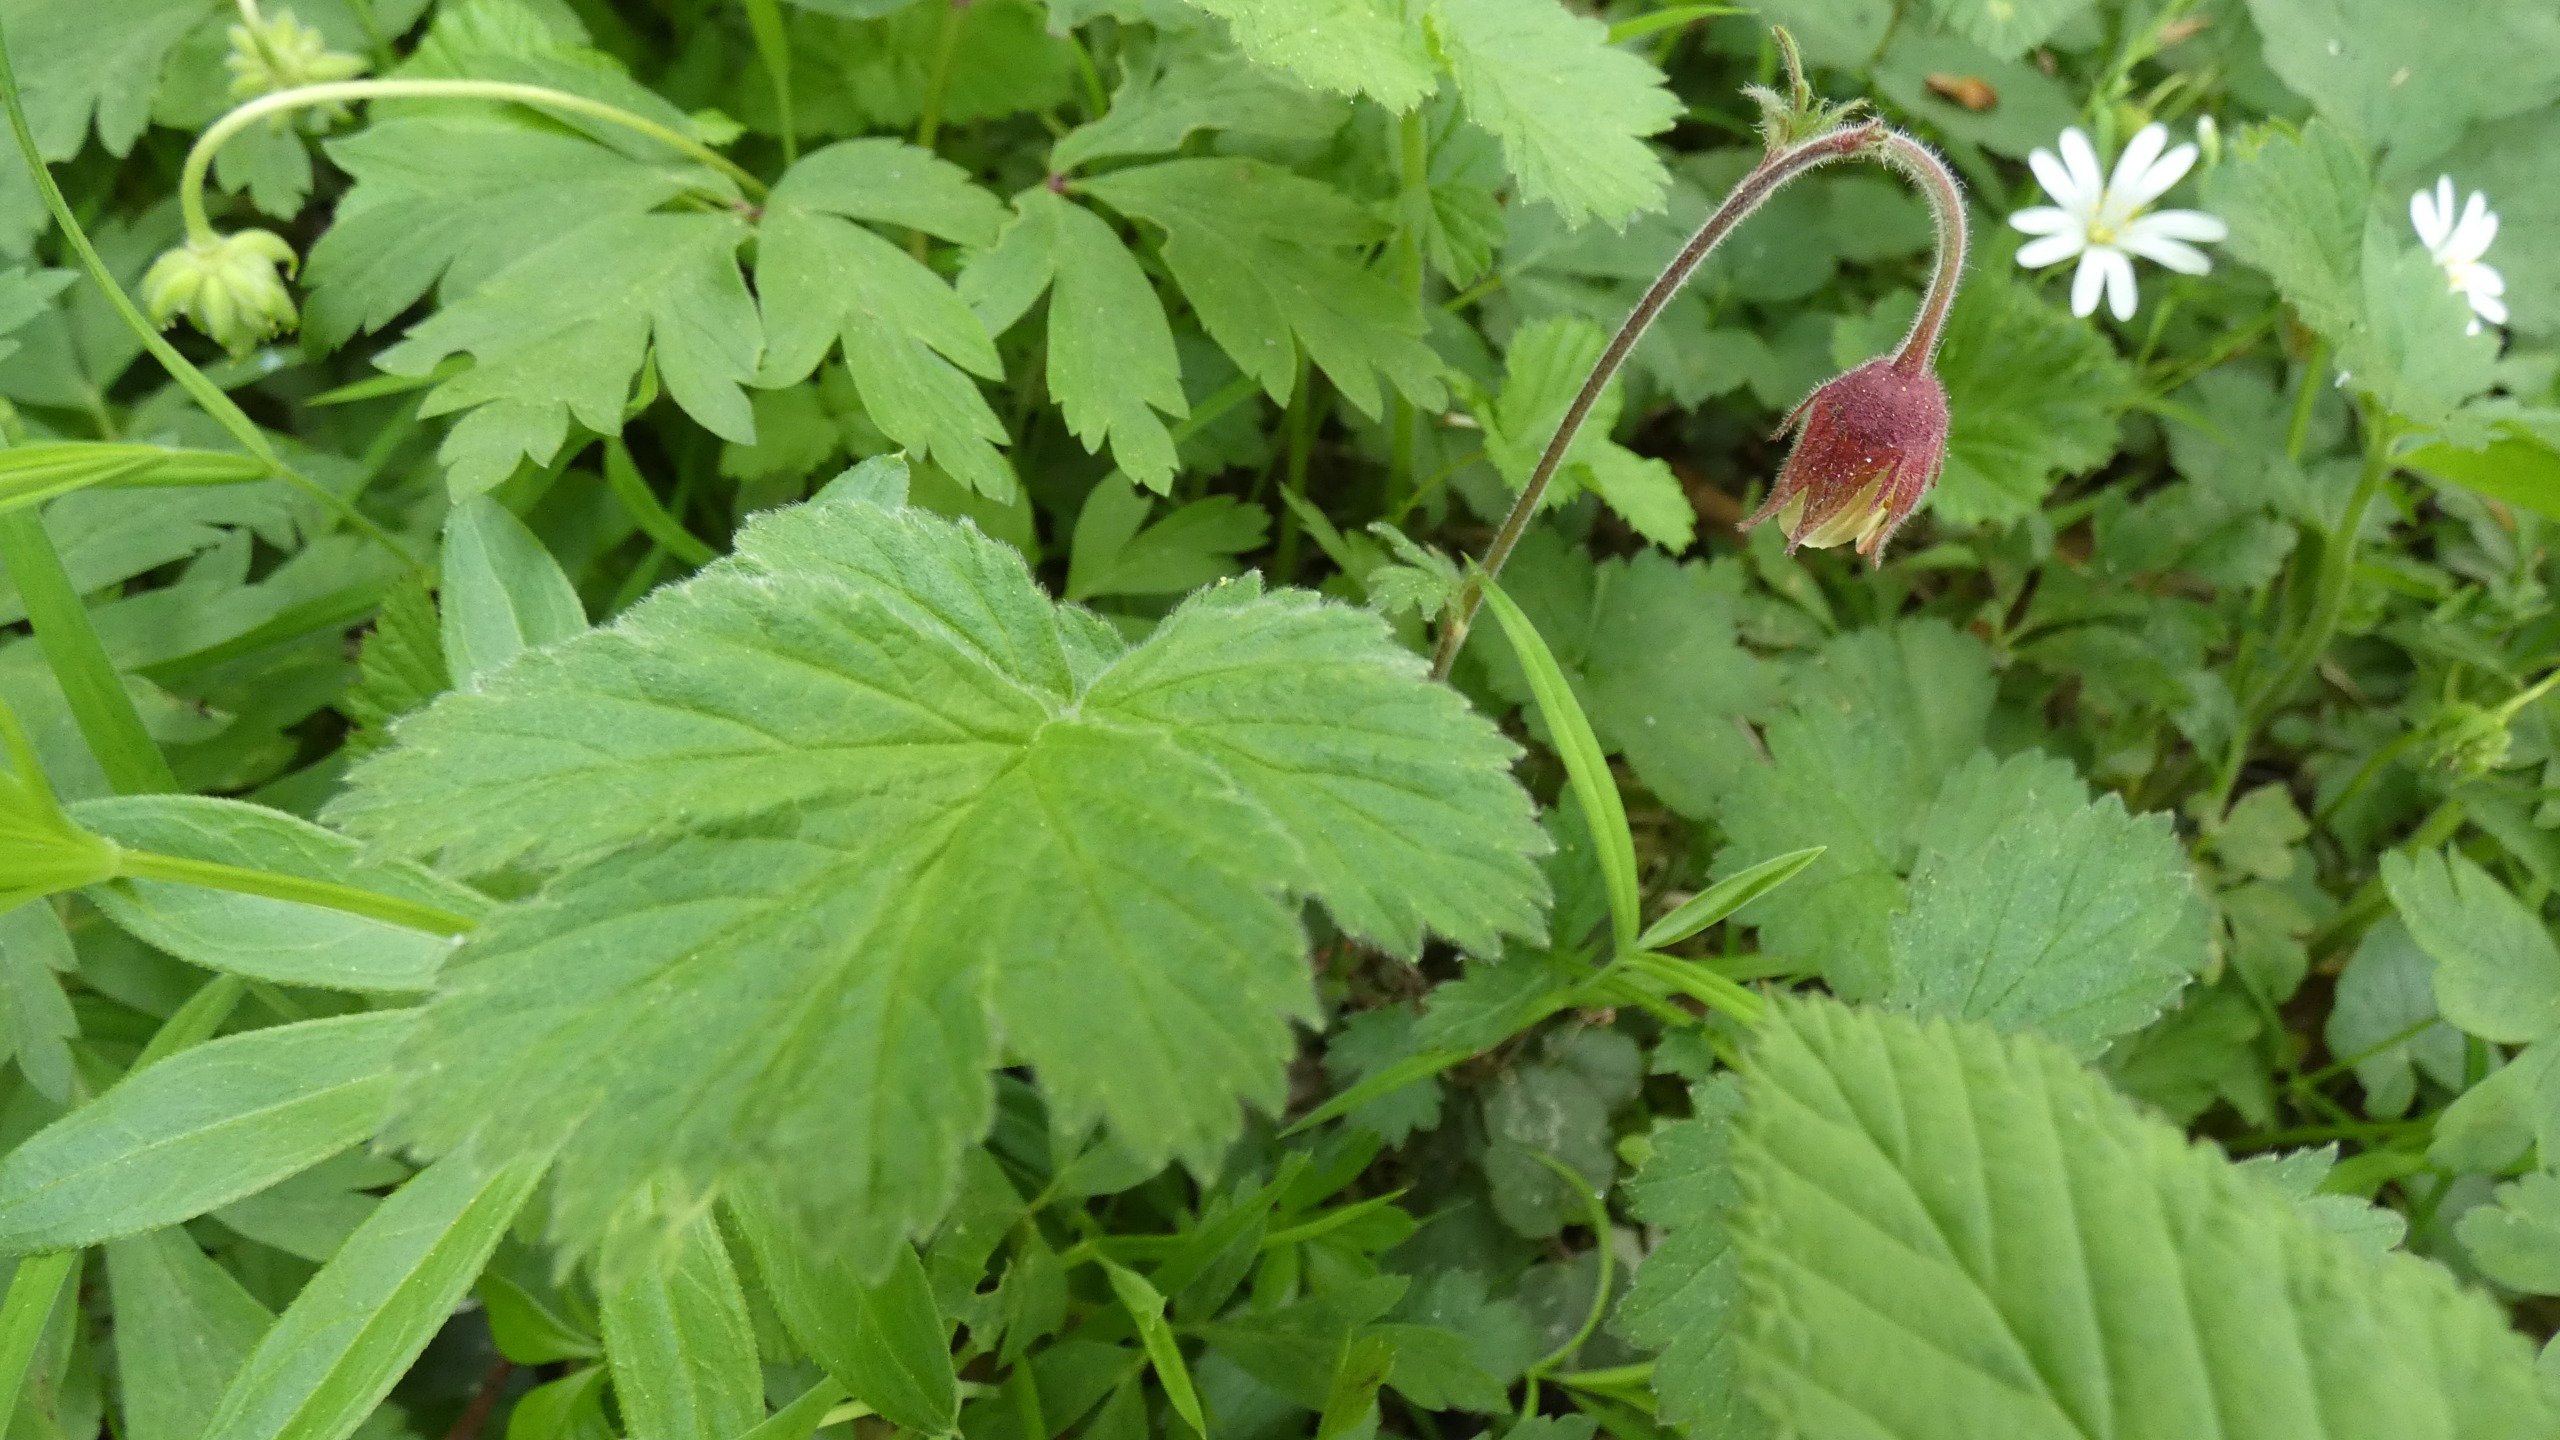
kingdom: Plantae
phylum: Tracheophyta
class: Magnoliopsida
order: Rosales
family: Rosaceae
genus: Geum
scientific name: Geum rivale
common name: Eng-nellikerod
